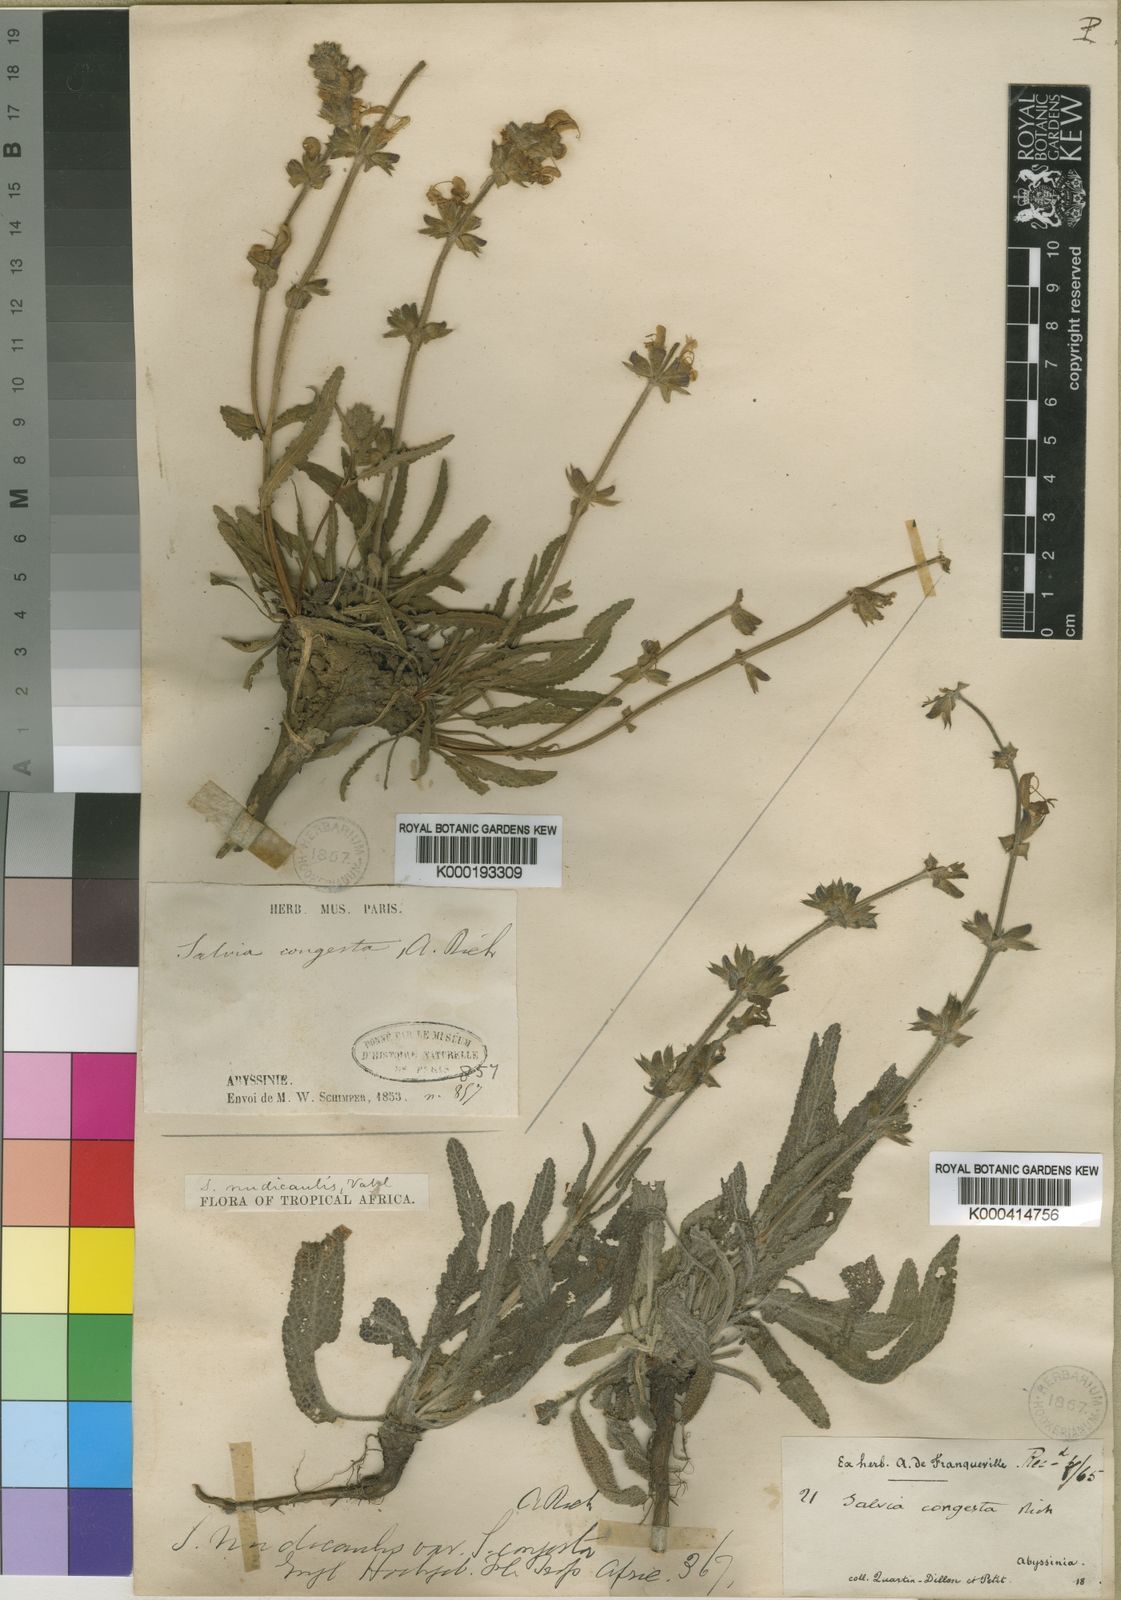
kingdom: Plantae
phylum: Tracheophyta
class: Magnoliopsida
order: Lamiales
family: Lamiaceae
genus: Salvia
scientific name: Salvia merjamie
